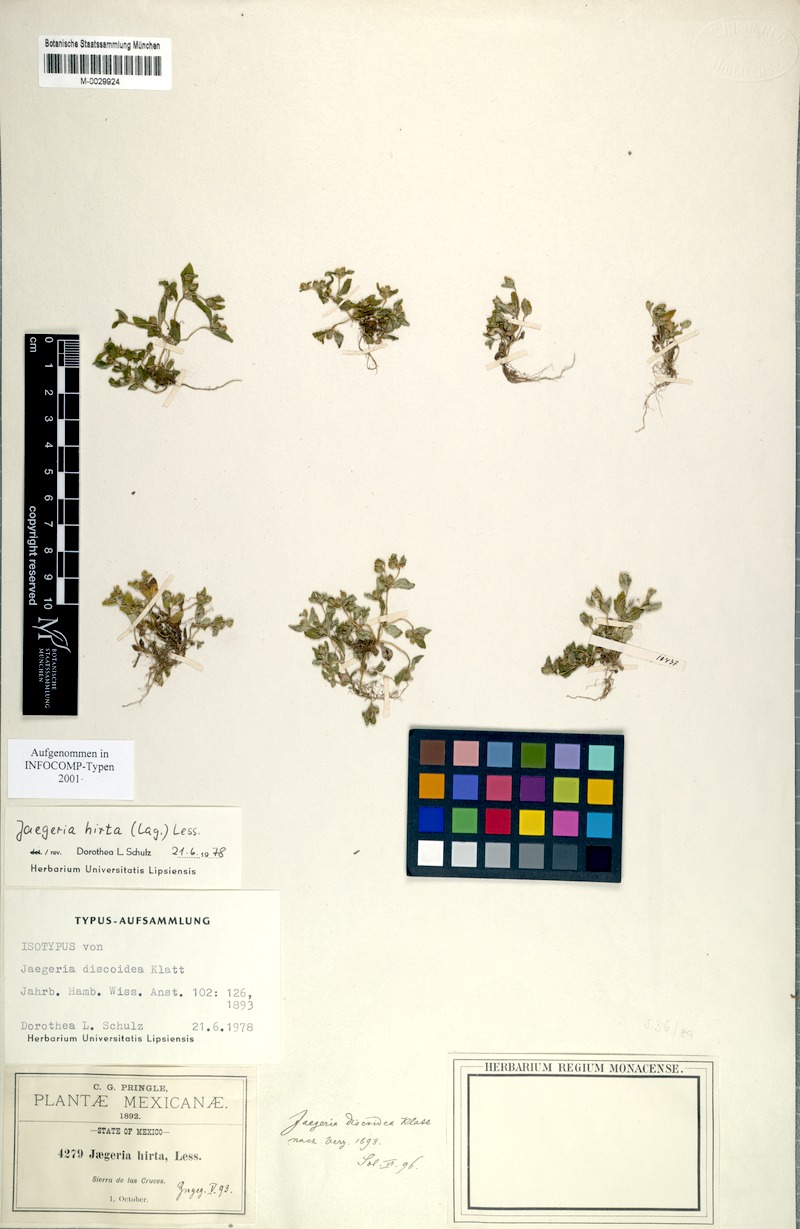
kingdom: Plantae
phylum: Tracheophyta
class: Magnoliopsida
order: Asterales
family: Asteraceae
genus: Jaegeria
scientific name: Jaegeria hirta
